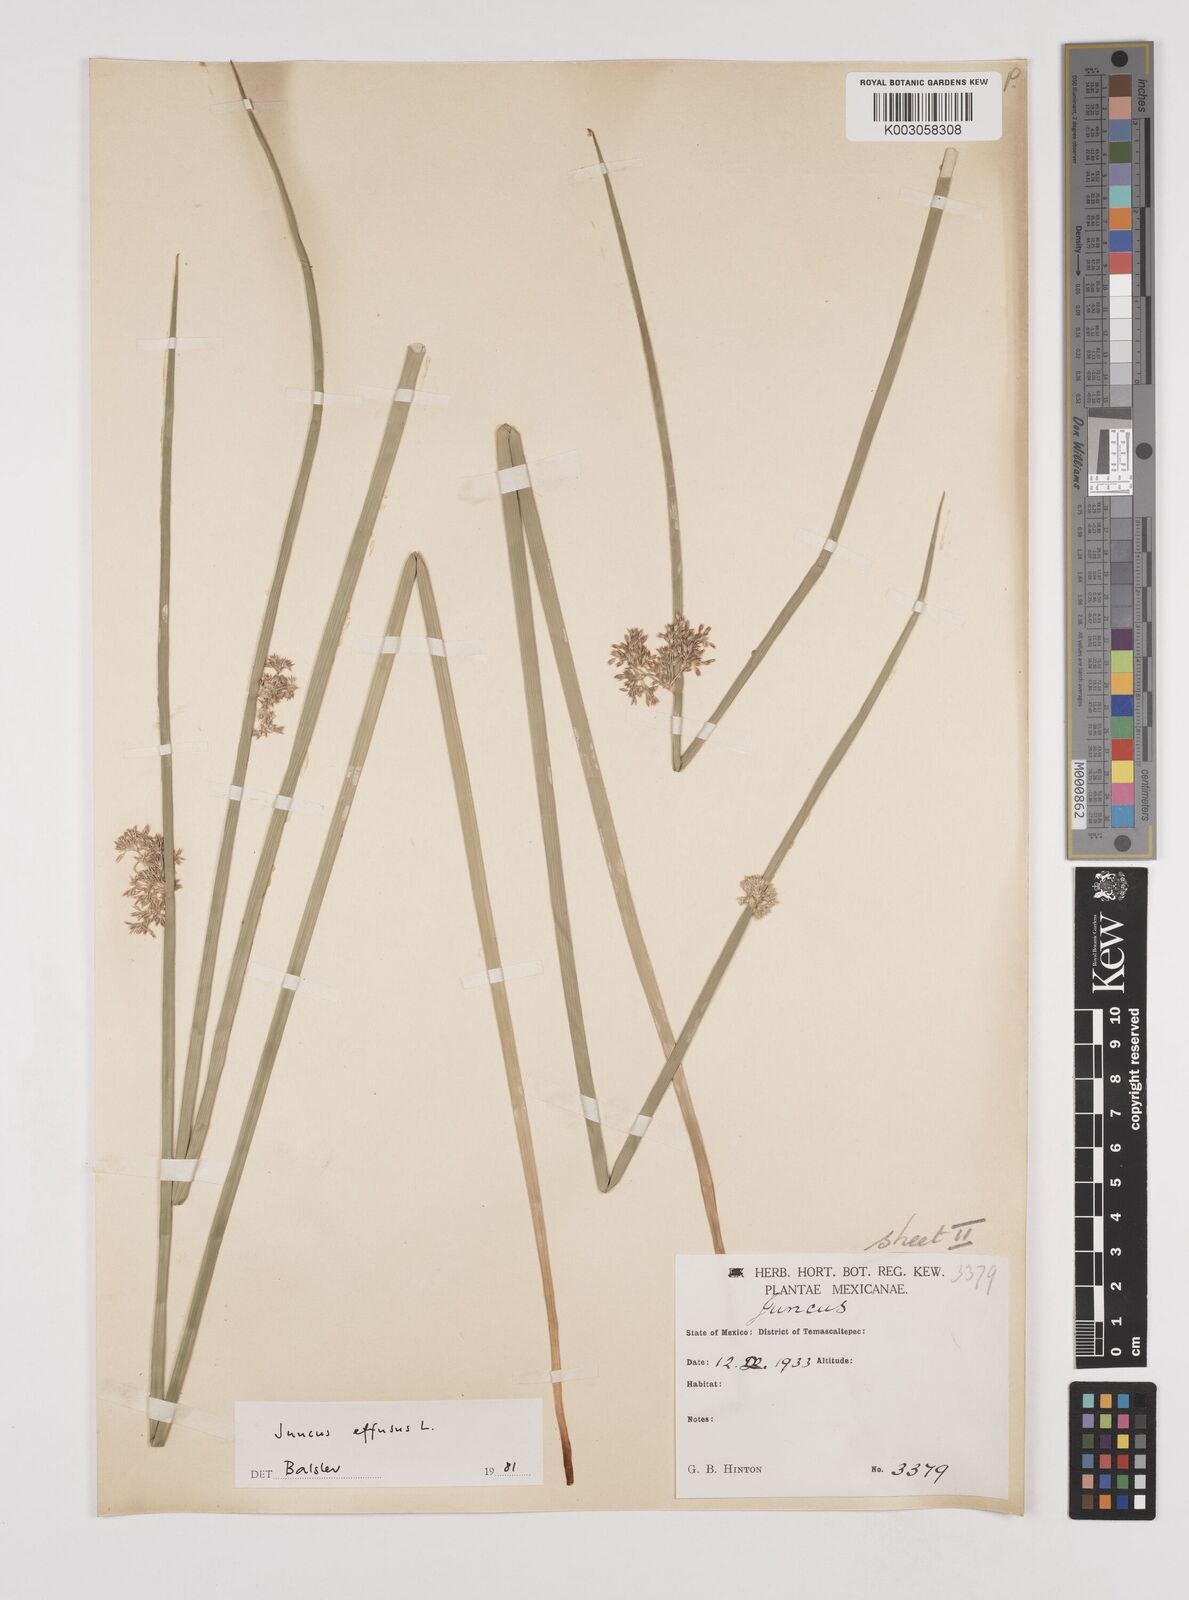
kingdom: Plantae
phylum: Tracheophyta
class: Liliopsida
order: Poales
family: Juncaceae
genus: Juncus
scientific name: Juncus effusus
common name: Soft rush
